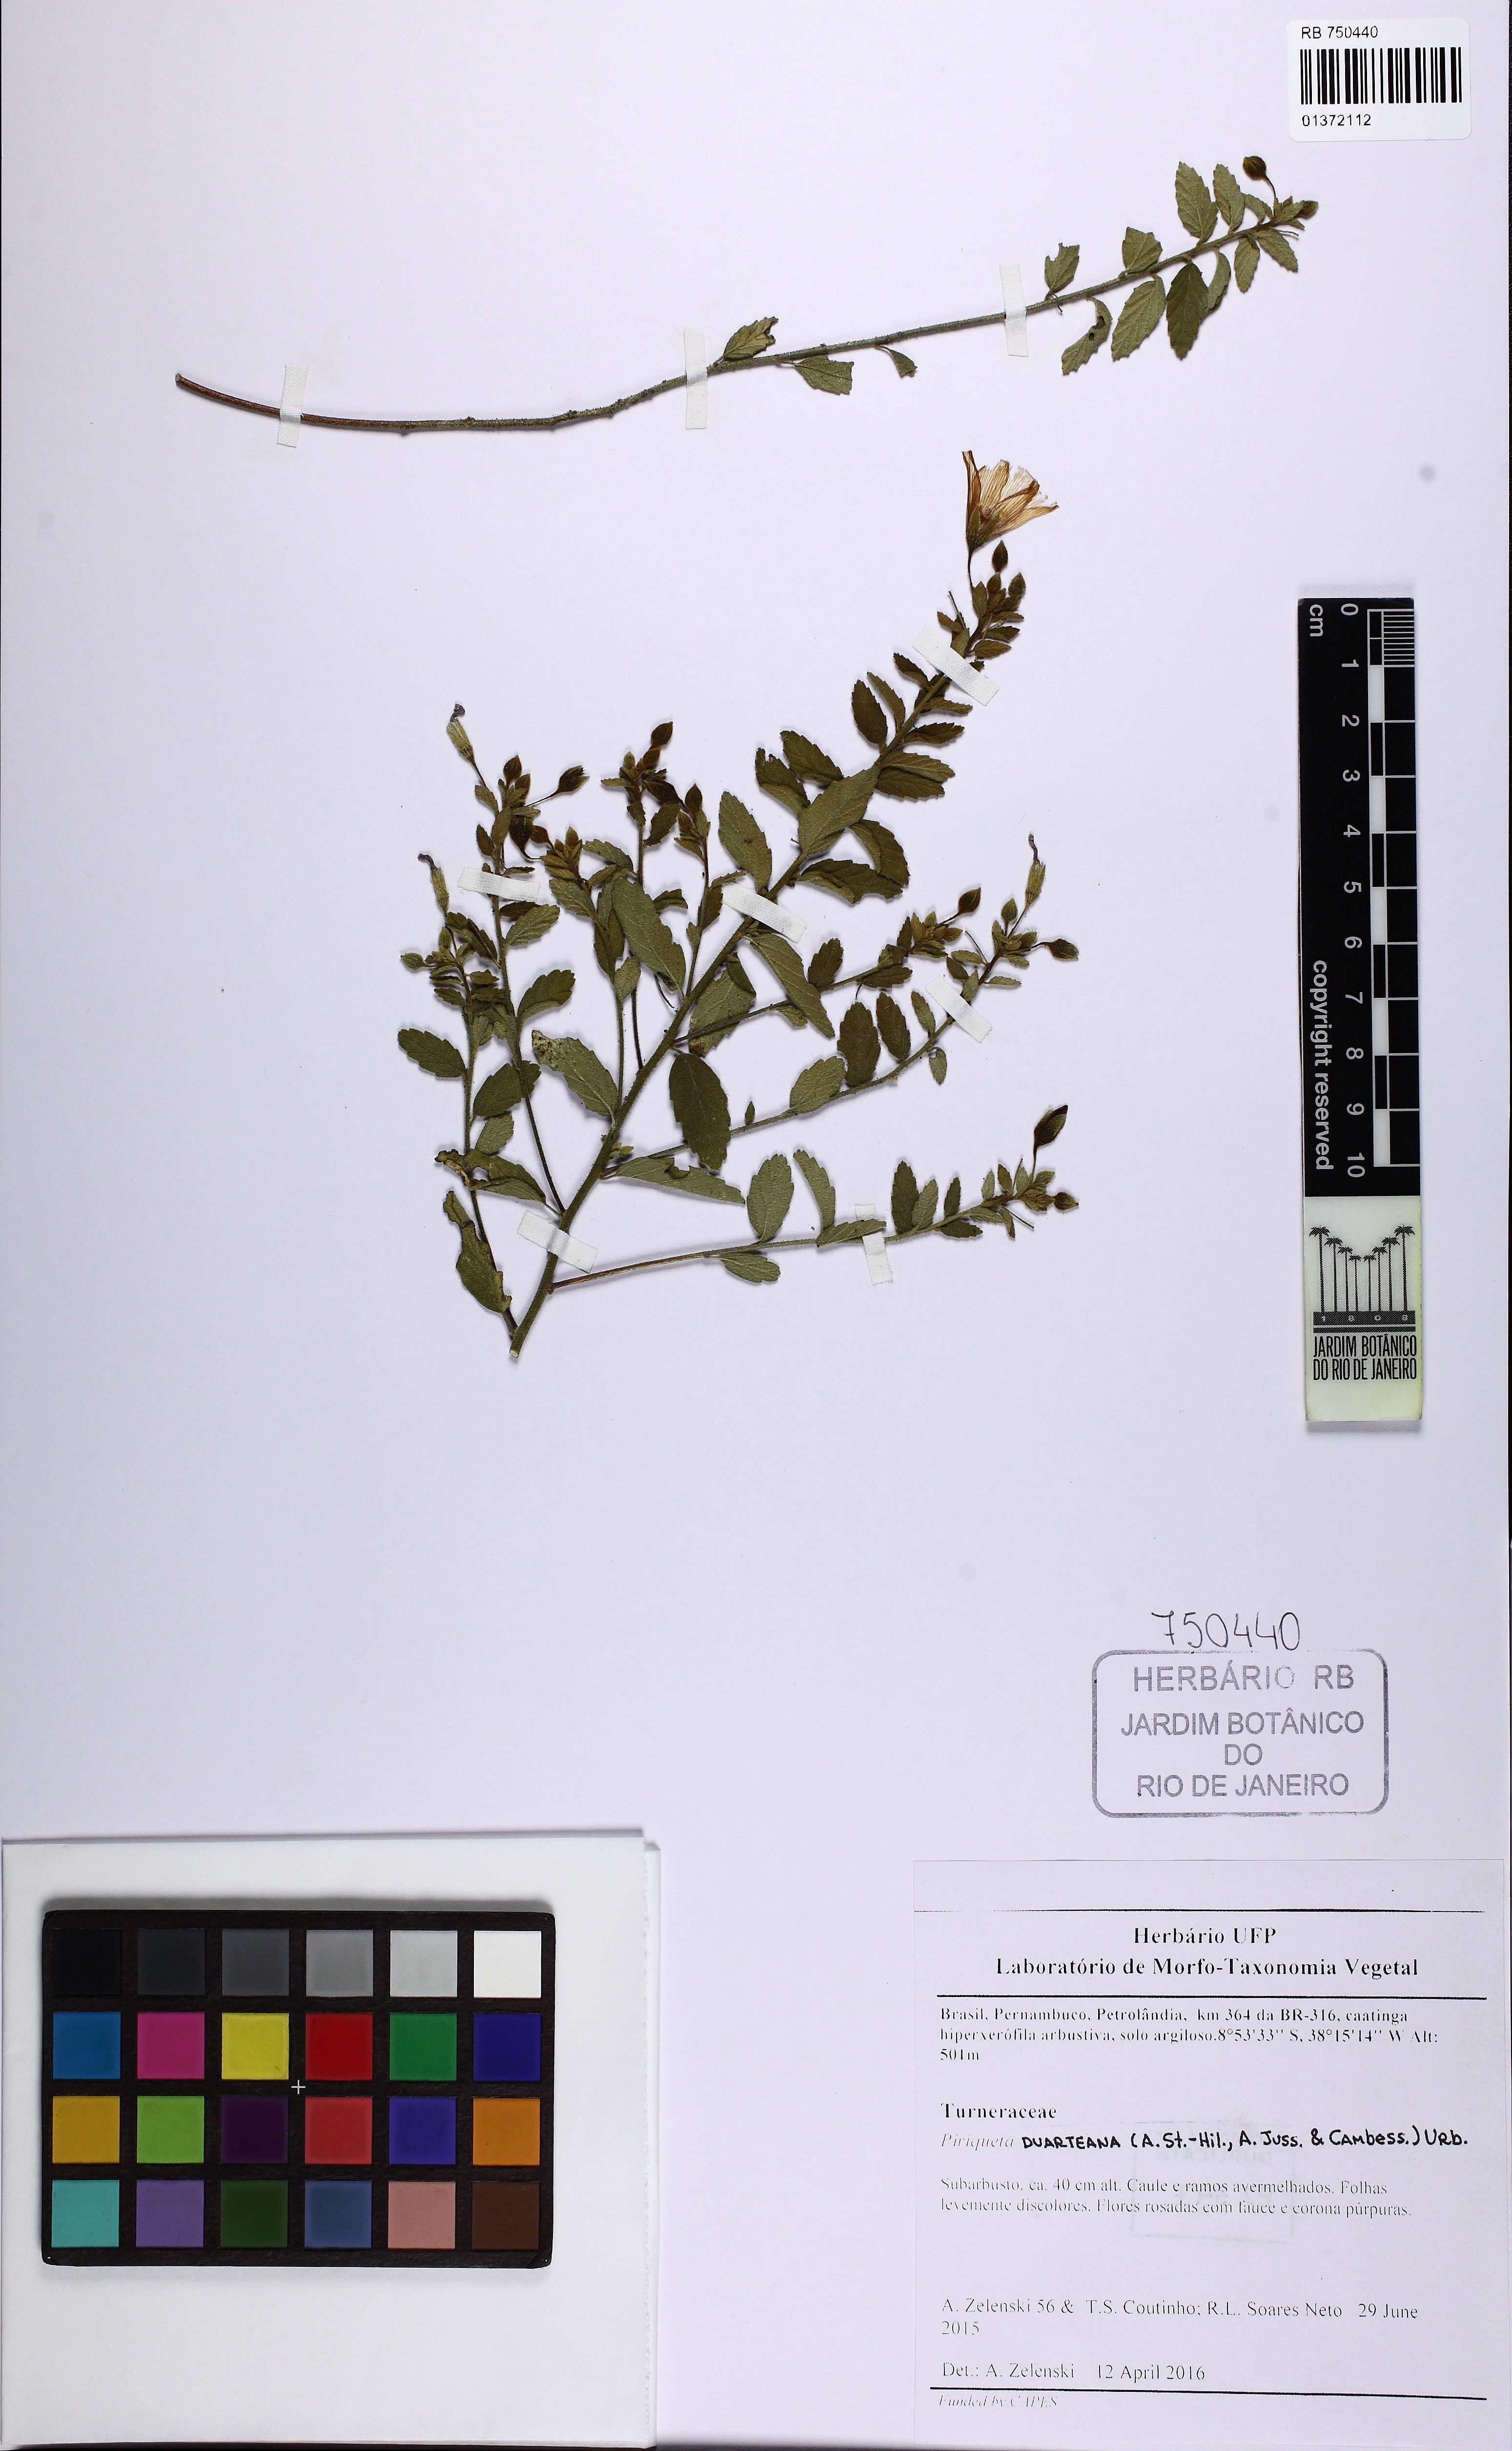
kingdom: Plantae
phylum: Tracheophyta
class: Magnoliopsida
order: Malpighiales
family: Turneraceae
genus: Piriqueta
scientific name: Piriqueta duarteana
